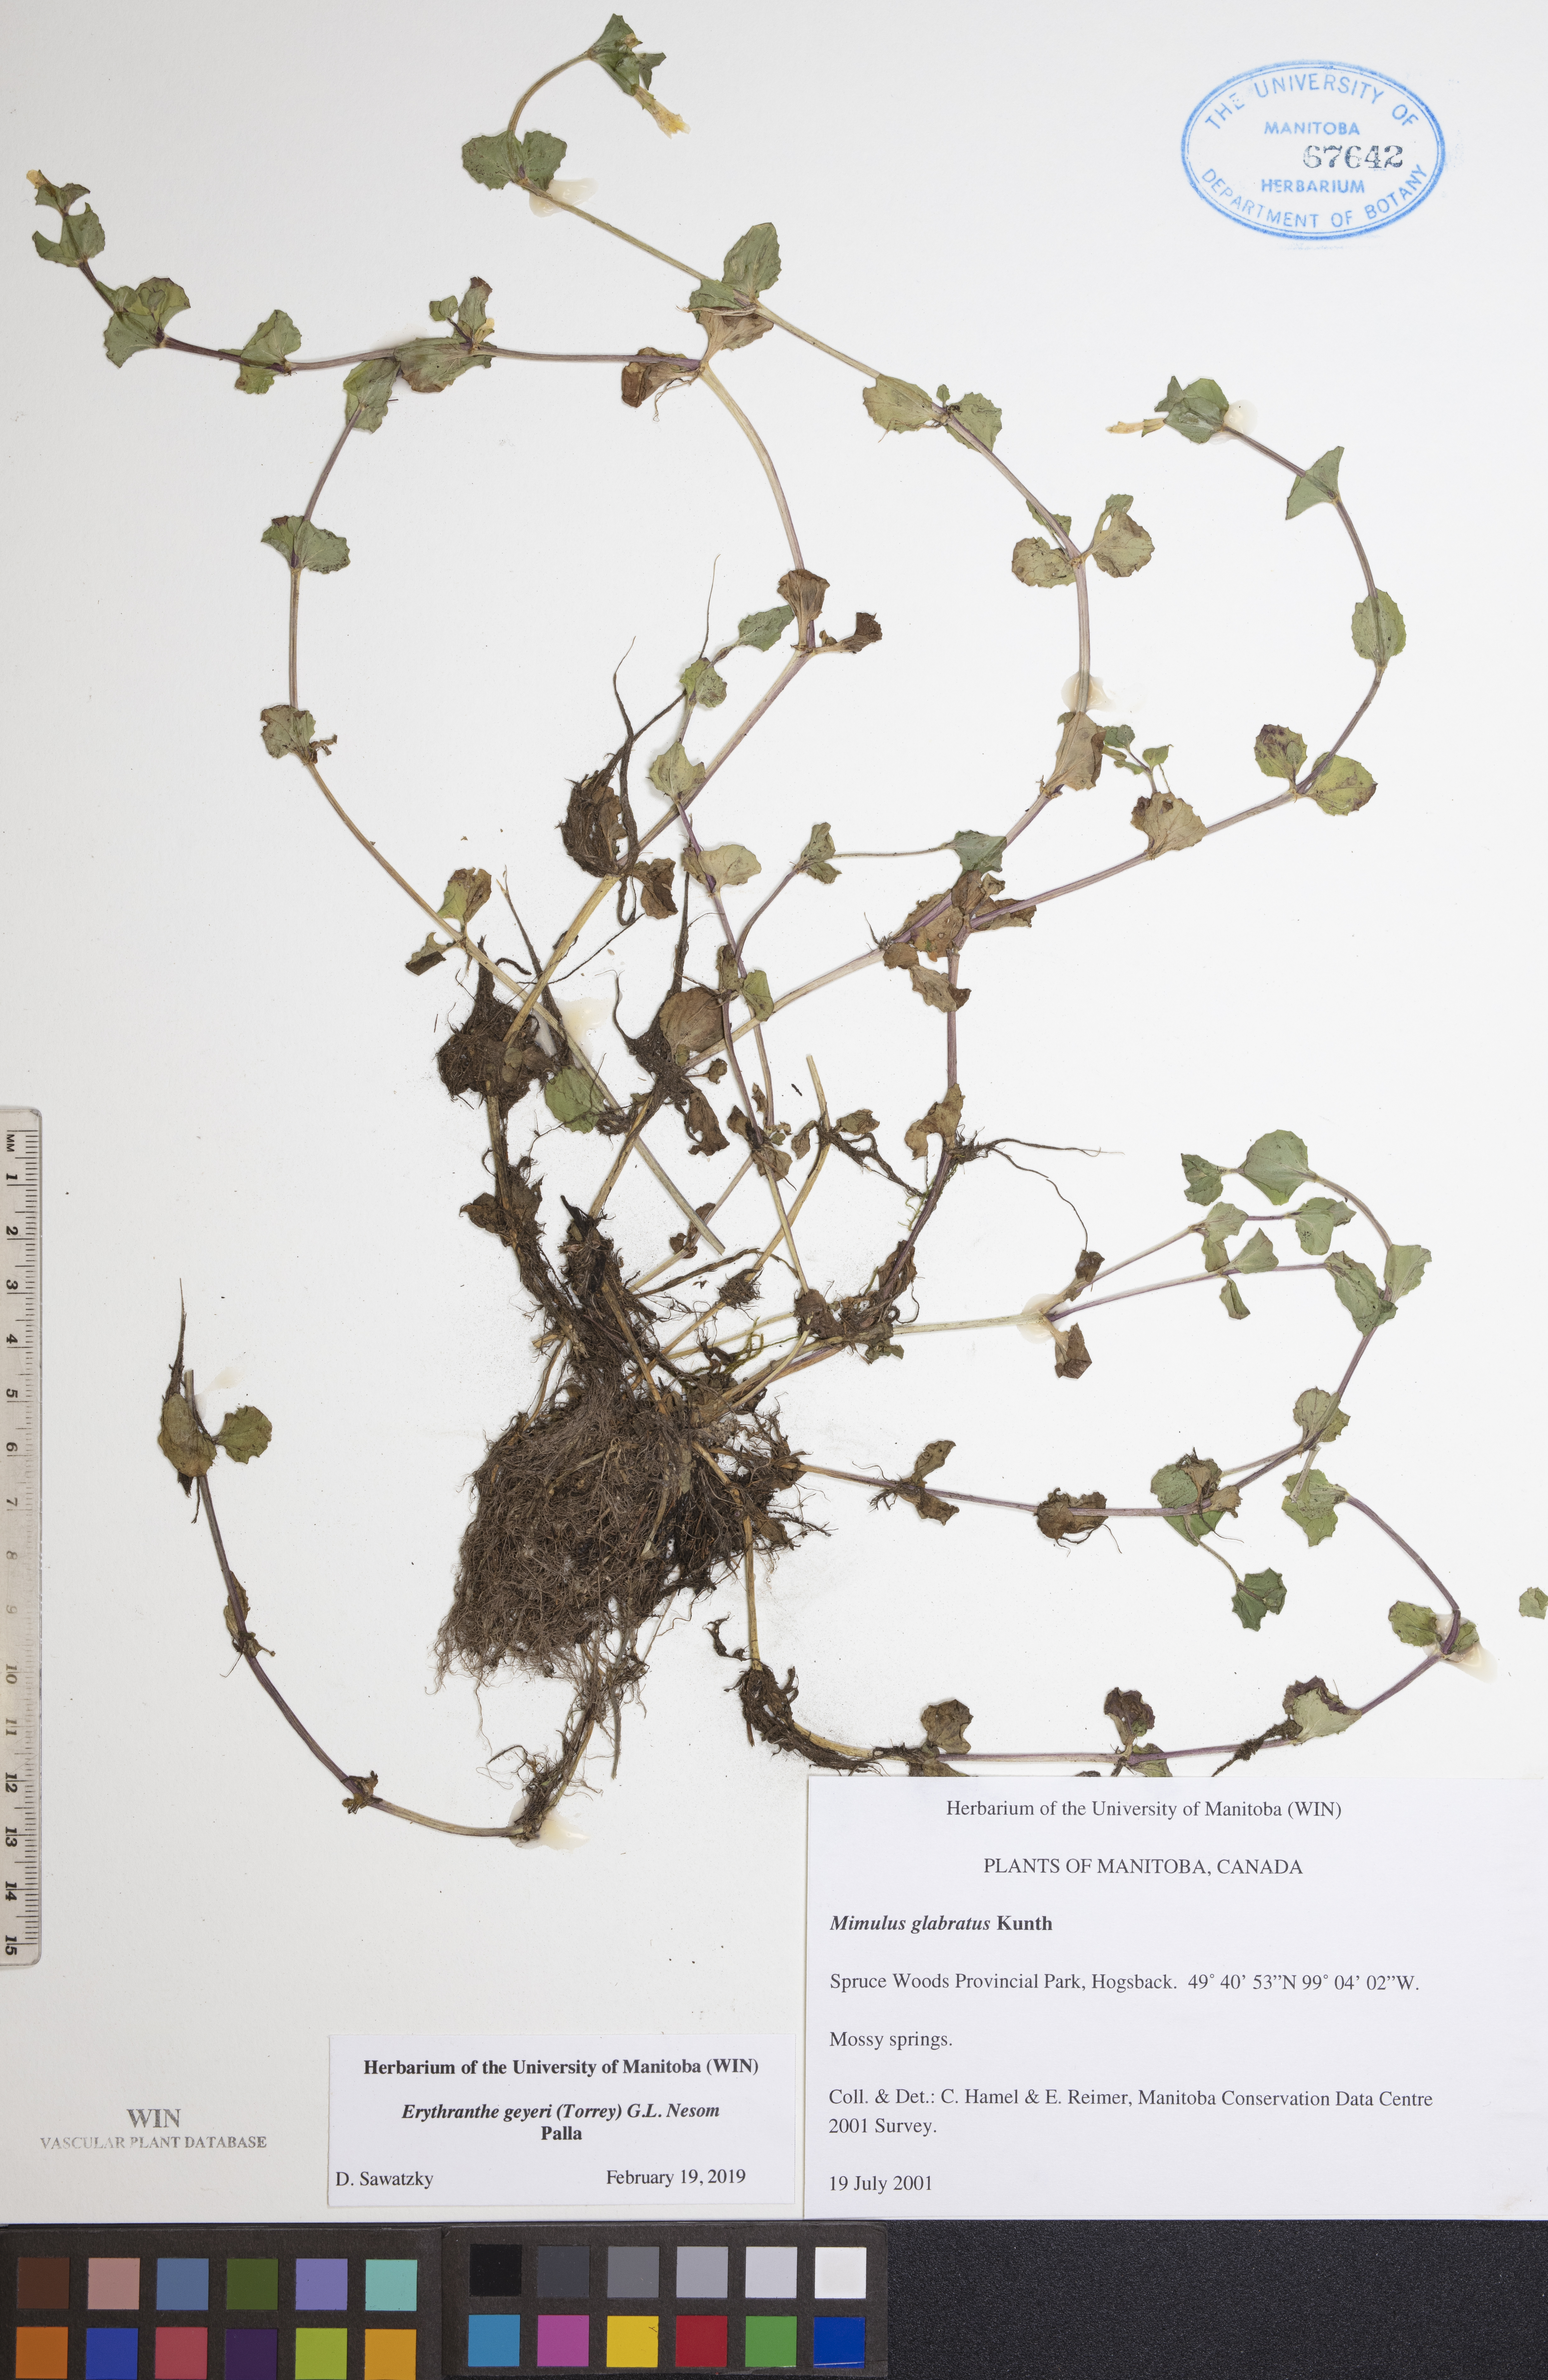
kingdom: Plantae
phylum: Tracheophyta
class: Magnoliopsida
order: Lamiales
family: Phrymaceae
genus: Erythranthe
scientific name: Erythranthe geyeri
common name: Geyer's monkeyflower
